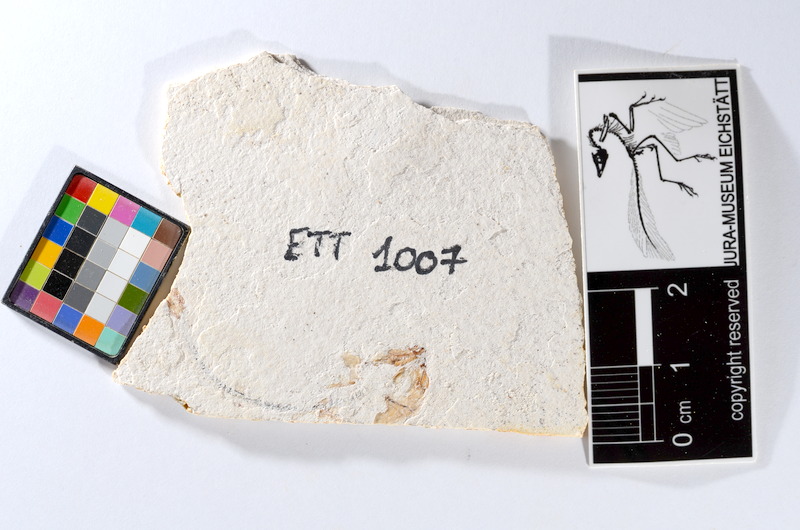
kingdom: Animalia
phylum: Chordata
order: Salmoniformes
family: Orthogonikleithridae
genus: Orthogonikleithrus
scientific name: Orthogonikleithrus hoelli
